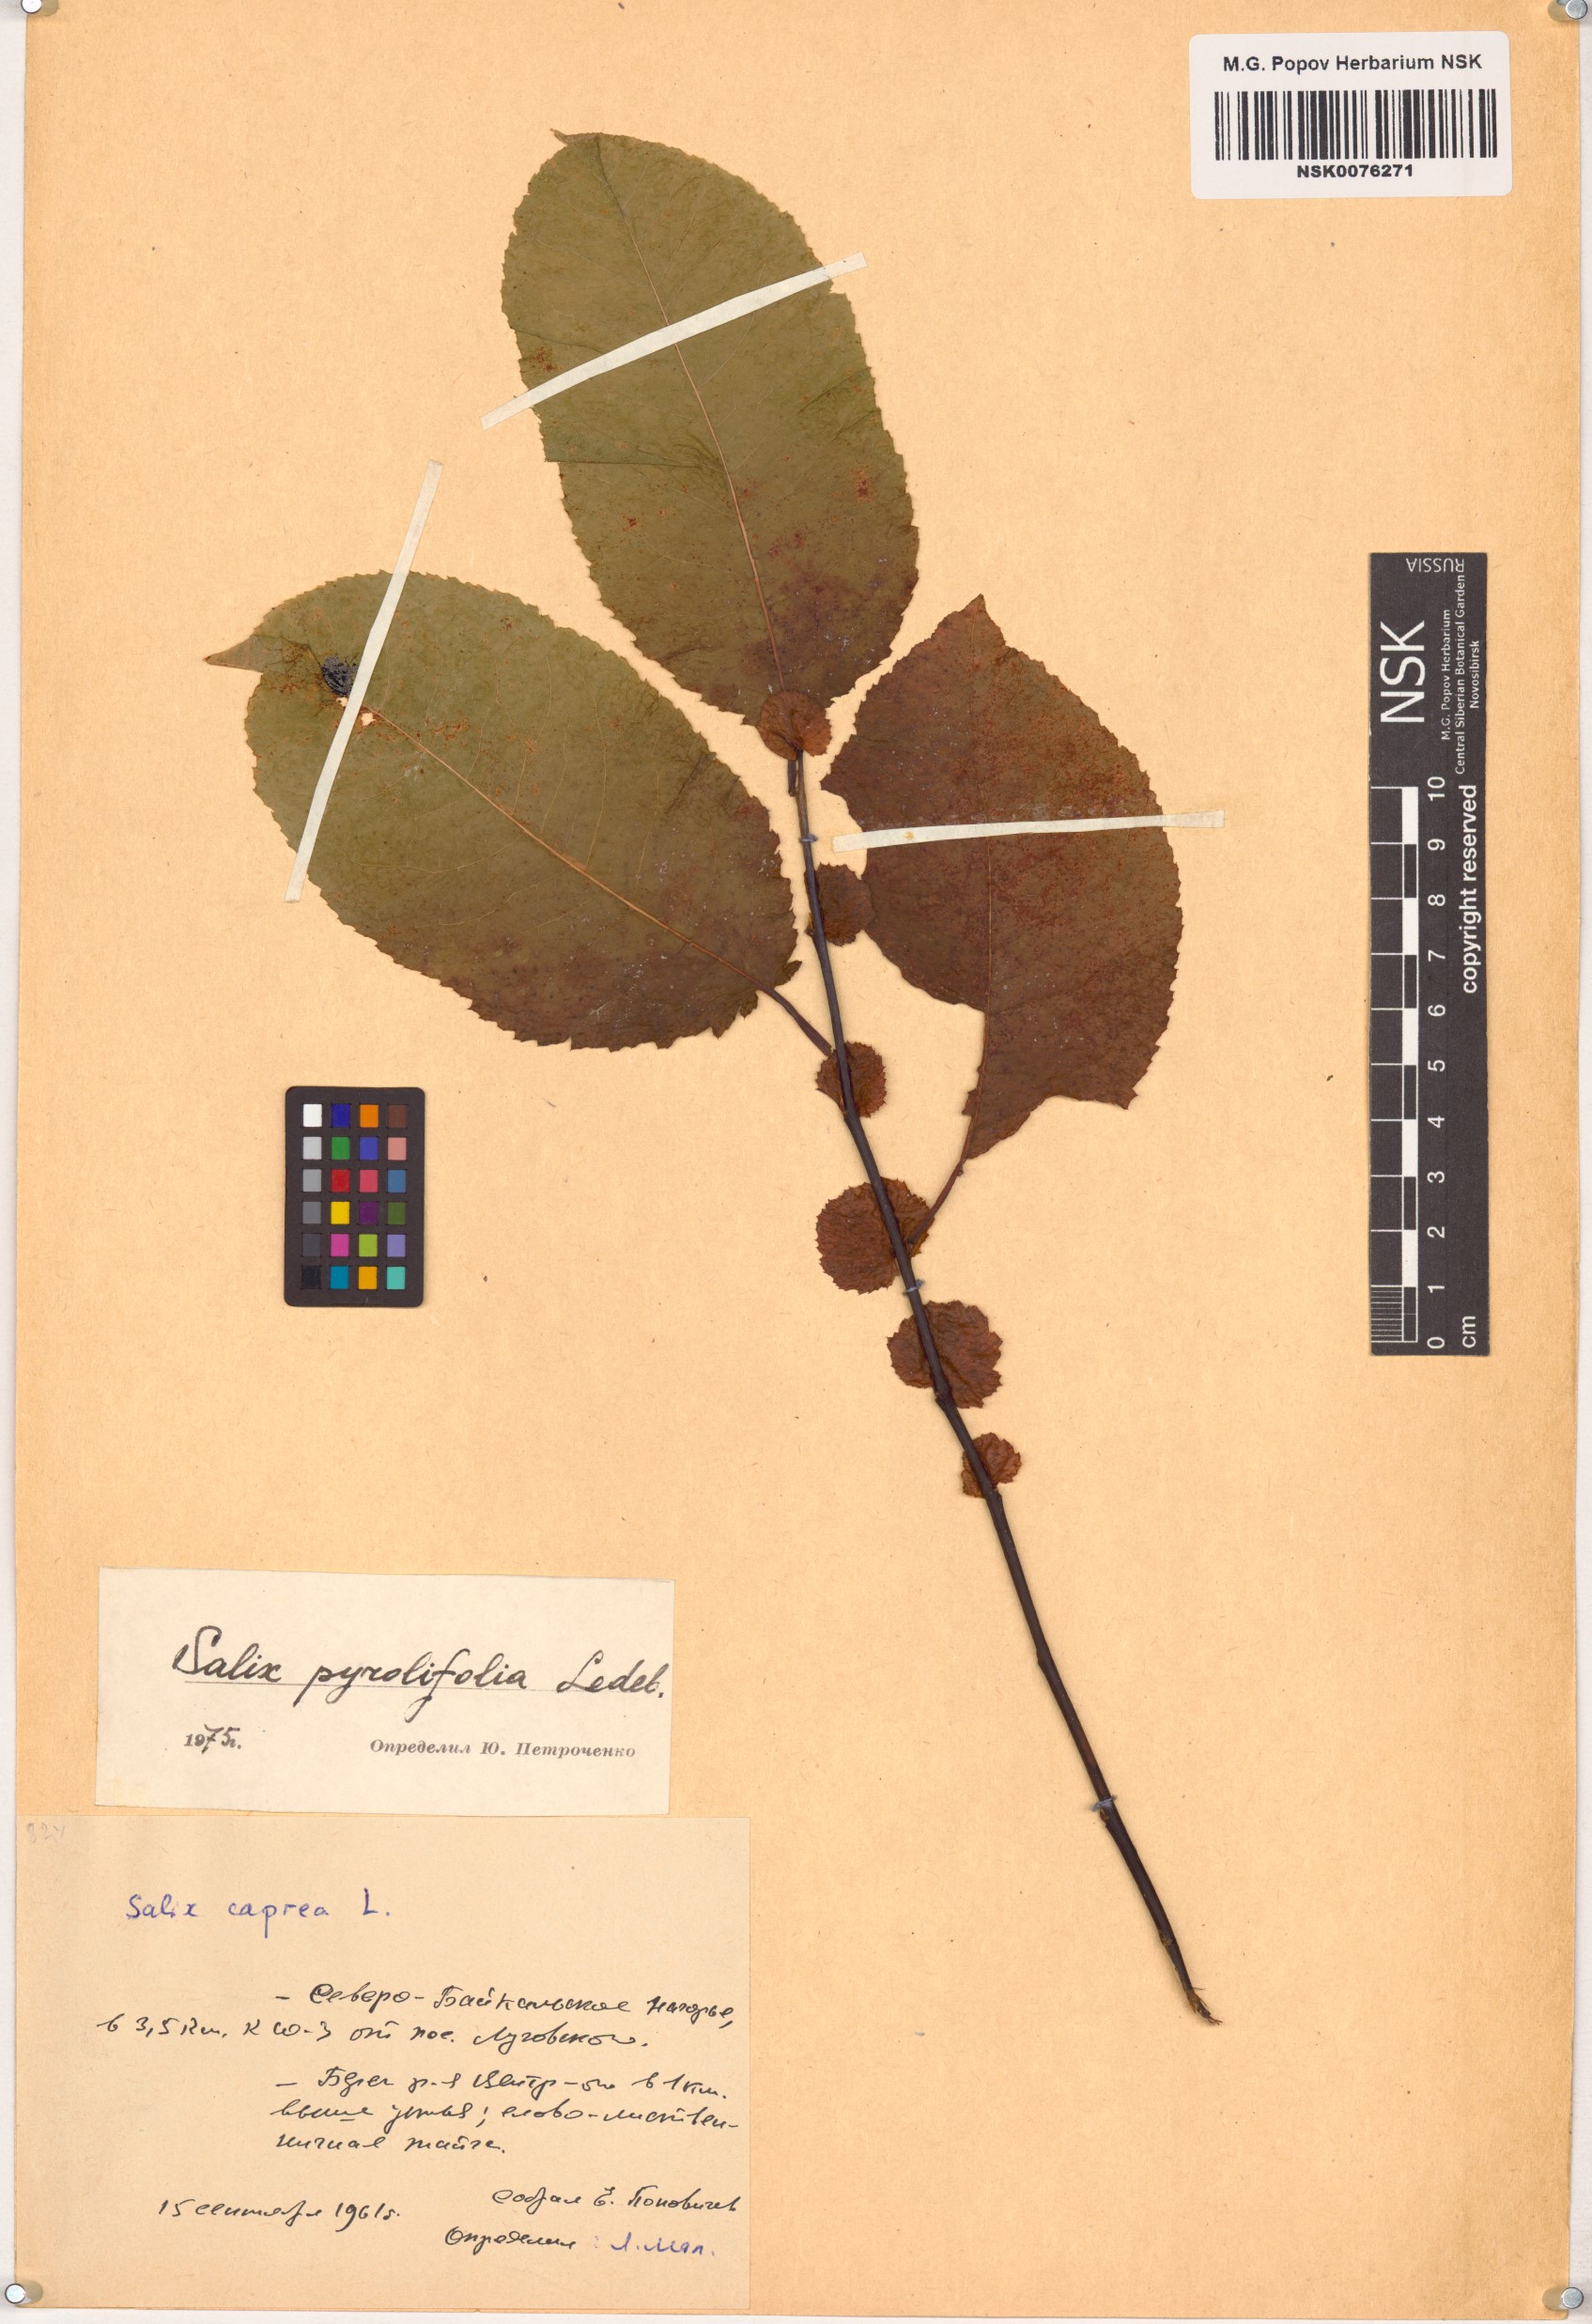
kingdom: Plantae
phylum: Tracheophyta
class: Magnoliopsida
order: Malpighiales
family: Salicaceae
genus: Salix
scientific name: Salix pyrolifolia
